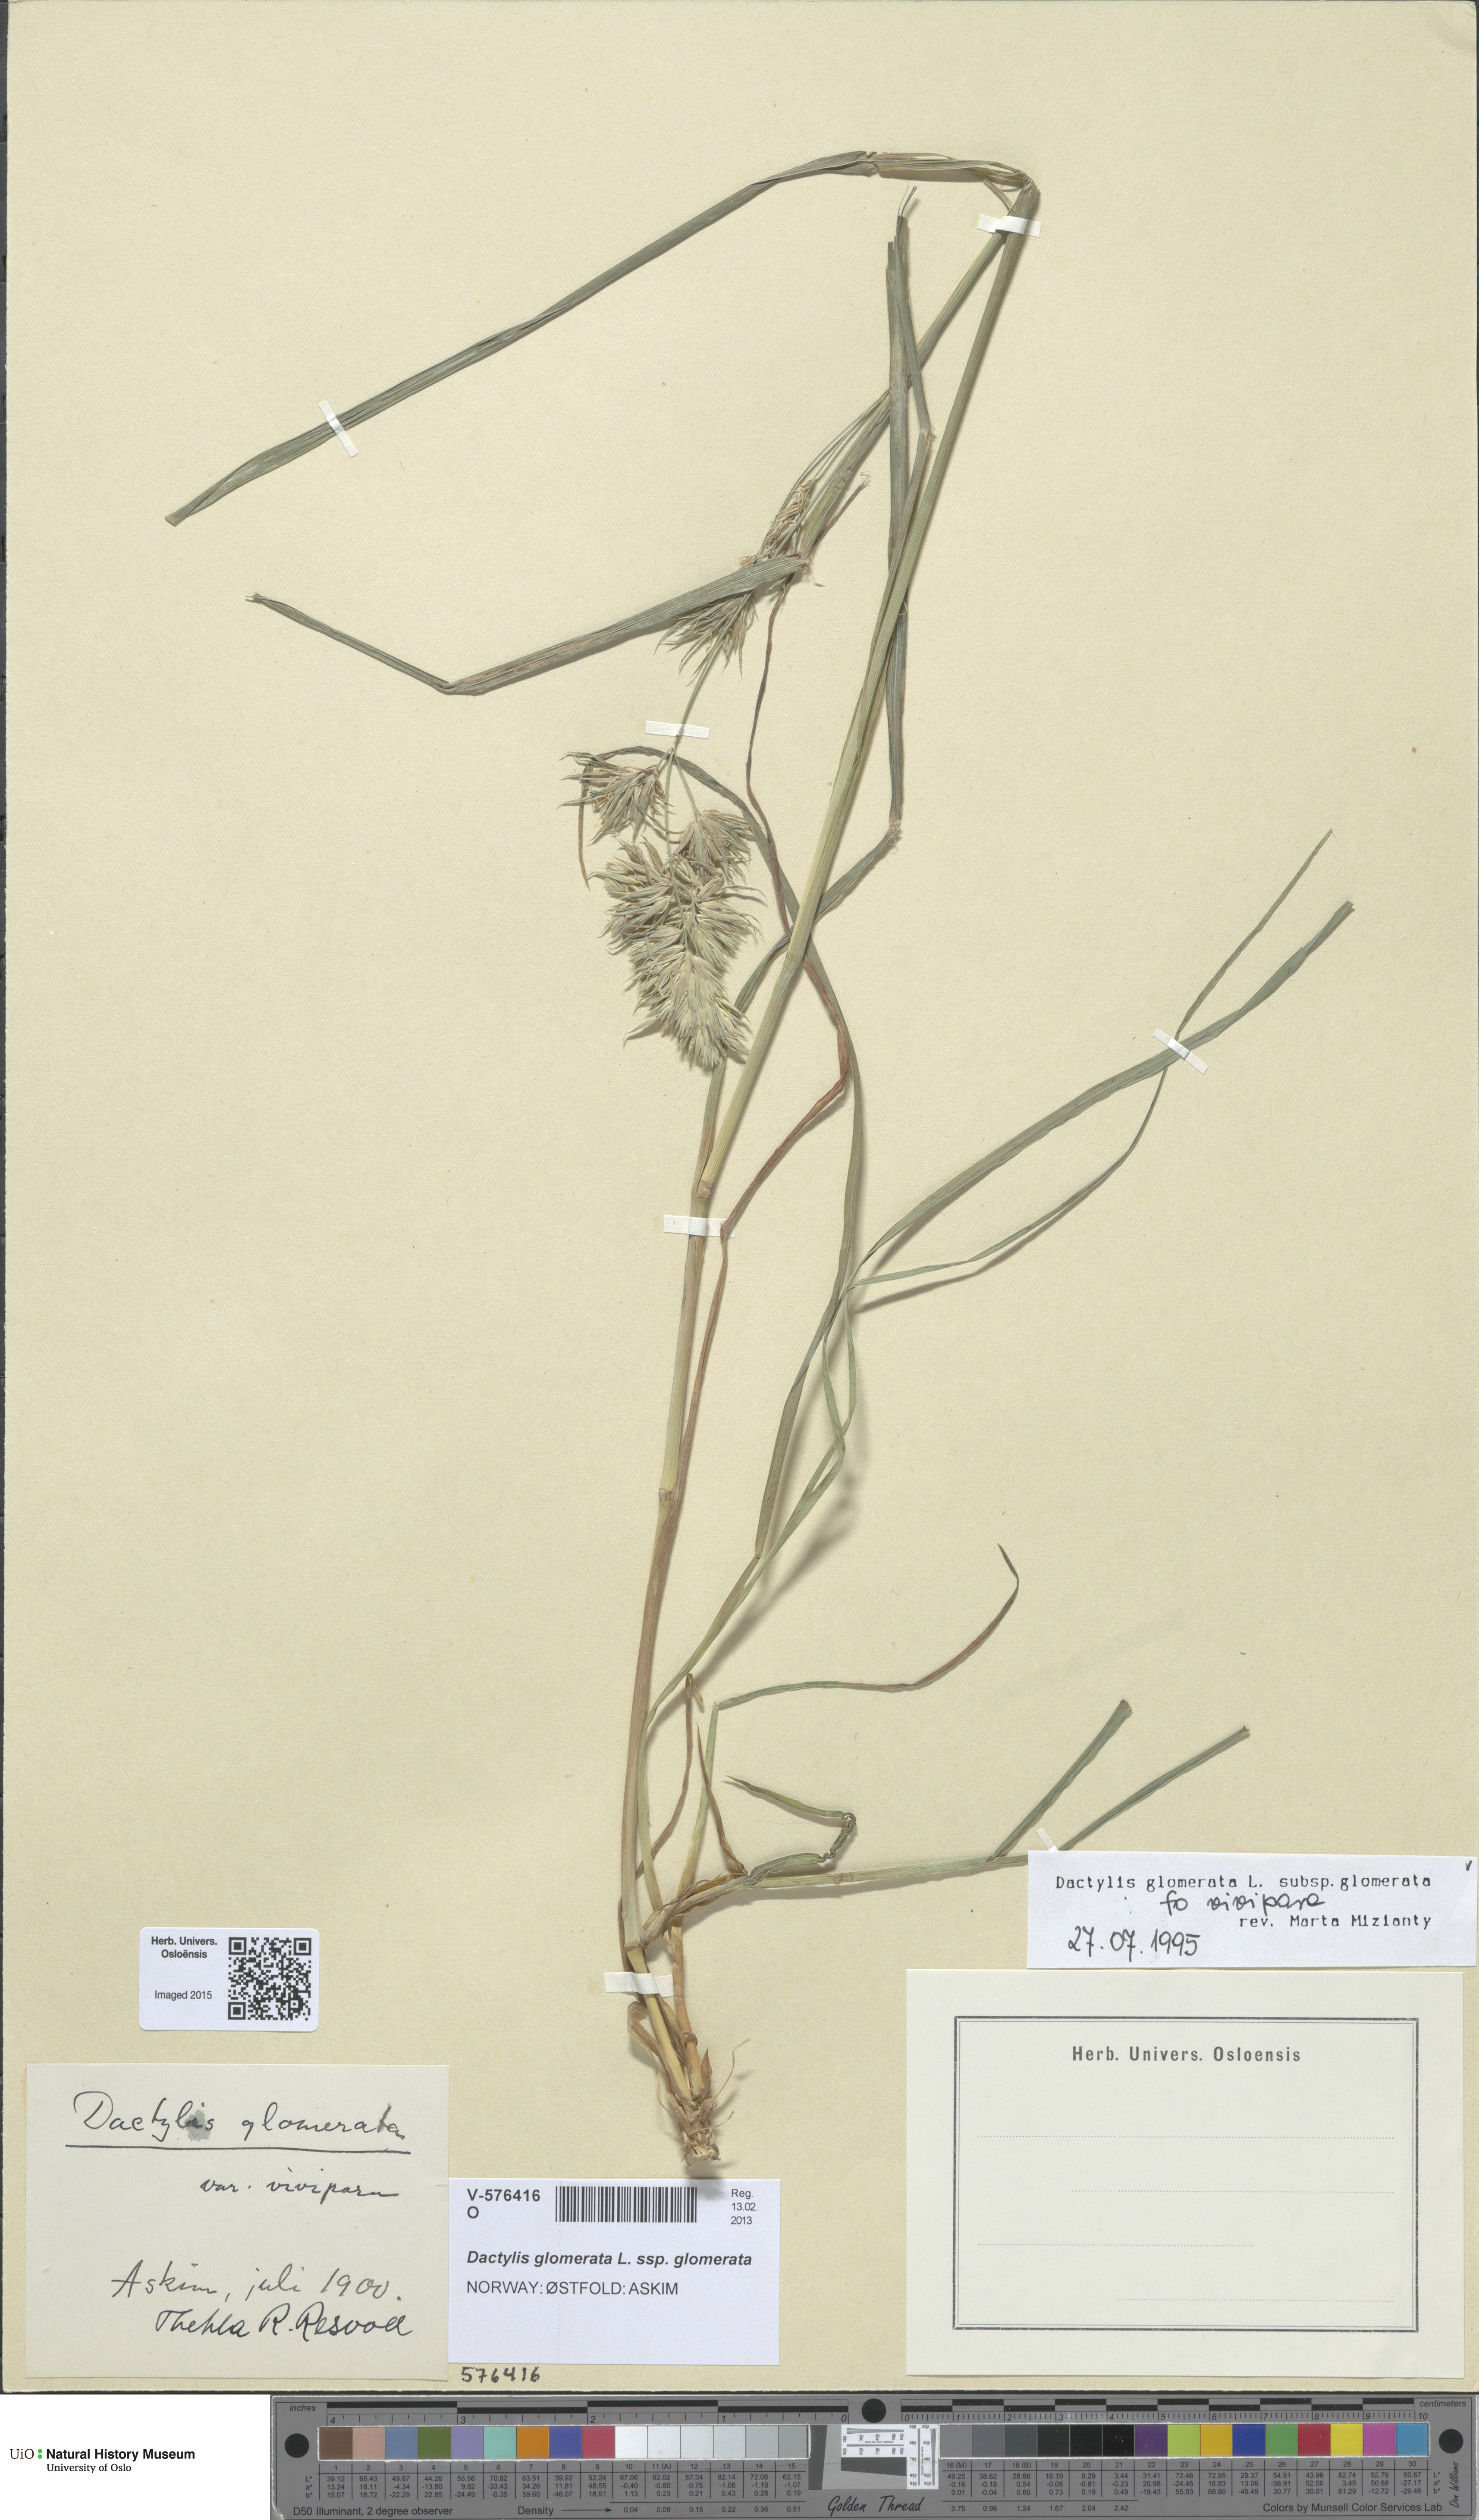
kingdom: Plantae
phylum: Tracheophyta
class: Liliopsida
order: Poales
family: Poaceae
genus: Dactylis
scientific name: Dactylis glomerata
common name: Orchardgrass
